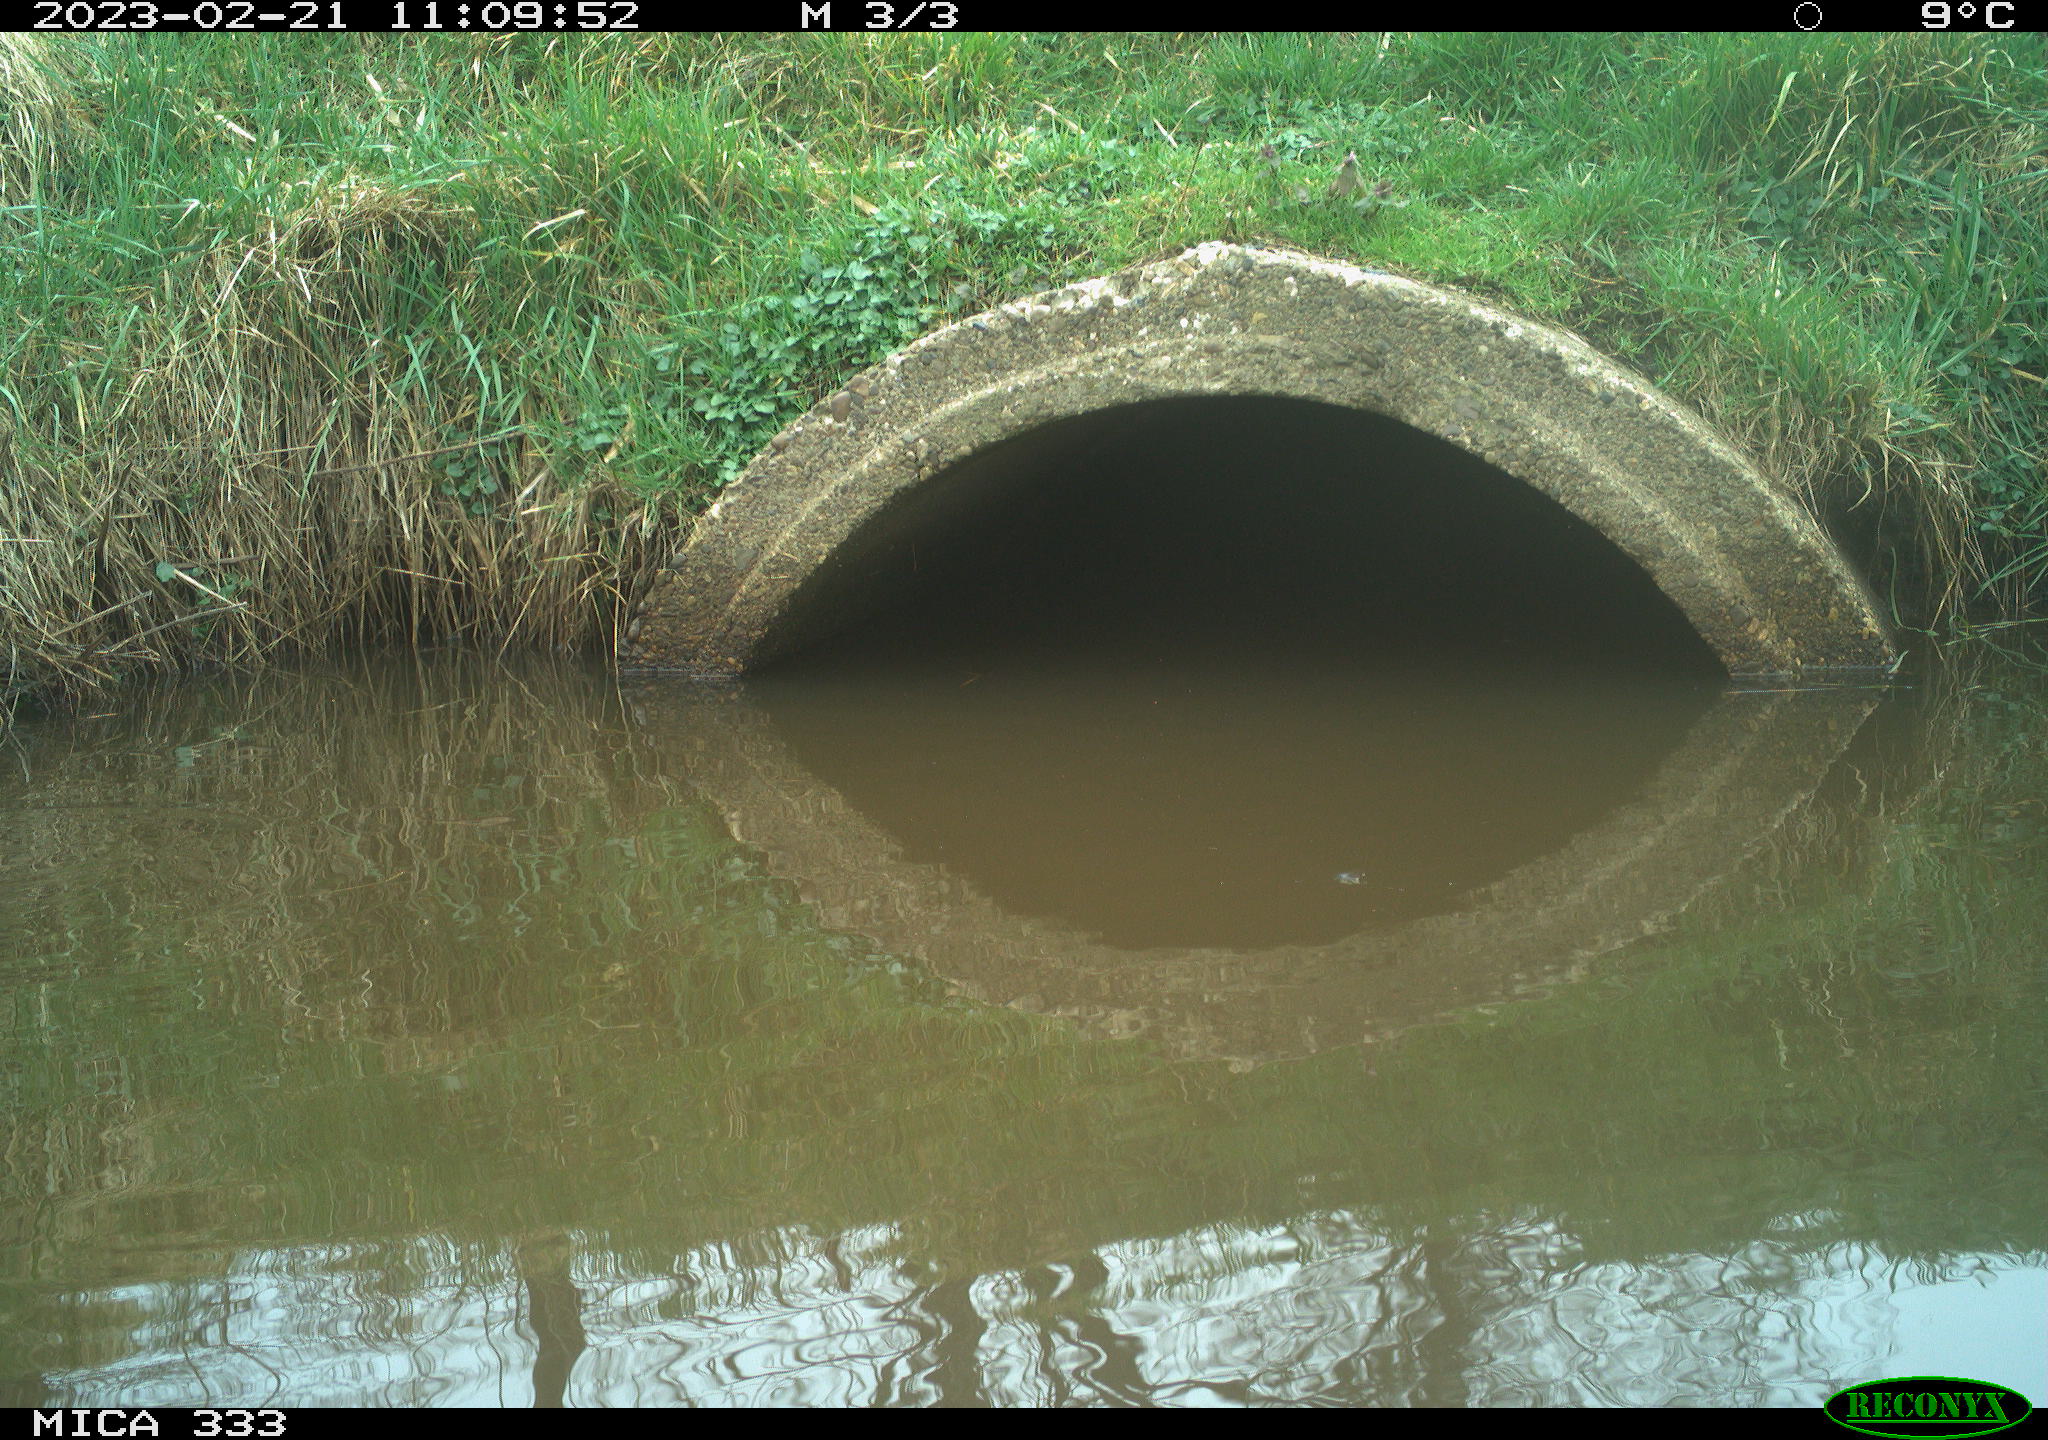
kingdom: Animalia
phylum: Chordata
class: Aves
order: Gruiformes
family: Rallidae
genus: Gallinula
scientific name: Gallinula chloropus
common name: Common moorhen
